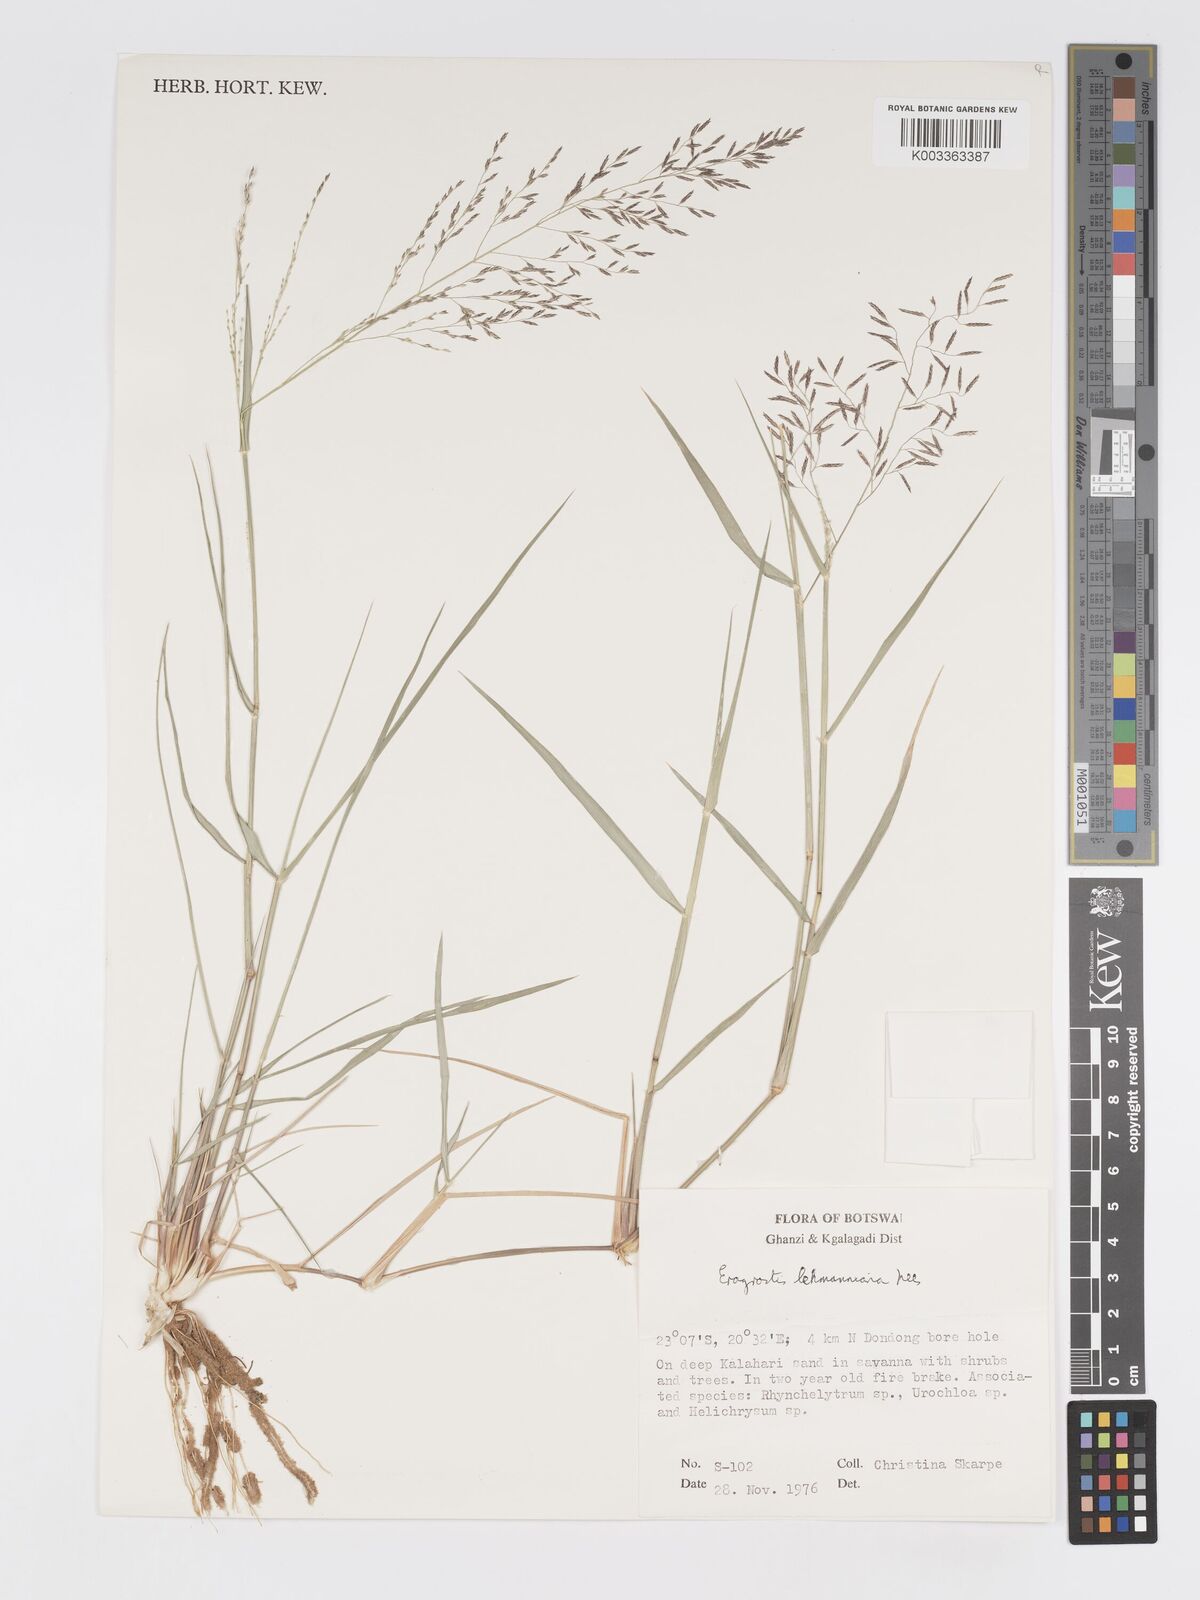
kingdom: Plantae
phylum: Tracheophyta
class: Liliopsida
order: Poales
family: Poaceae
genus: Eragrostis
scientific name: Eragrostis lehmanniana
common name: Lehmann lovegrass
